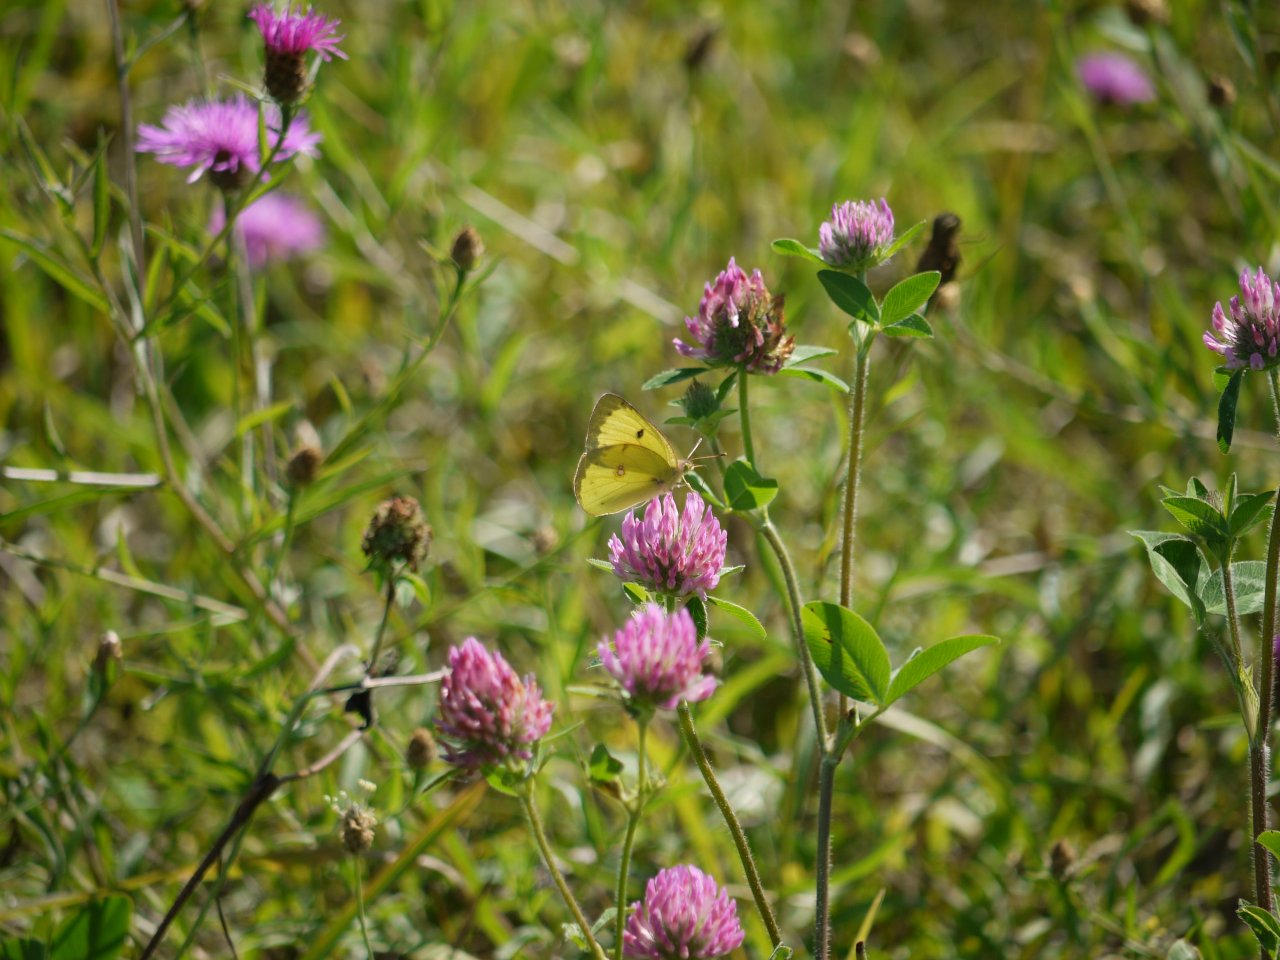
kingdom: Animalia
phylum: Arthropoda
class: Insecta
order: Lepidoptera
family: Pieridae
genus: Colias
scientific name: Colias philodice
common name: Clouded Sulphur
